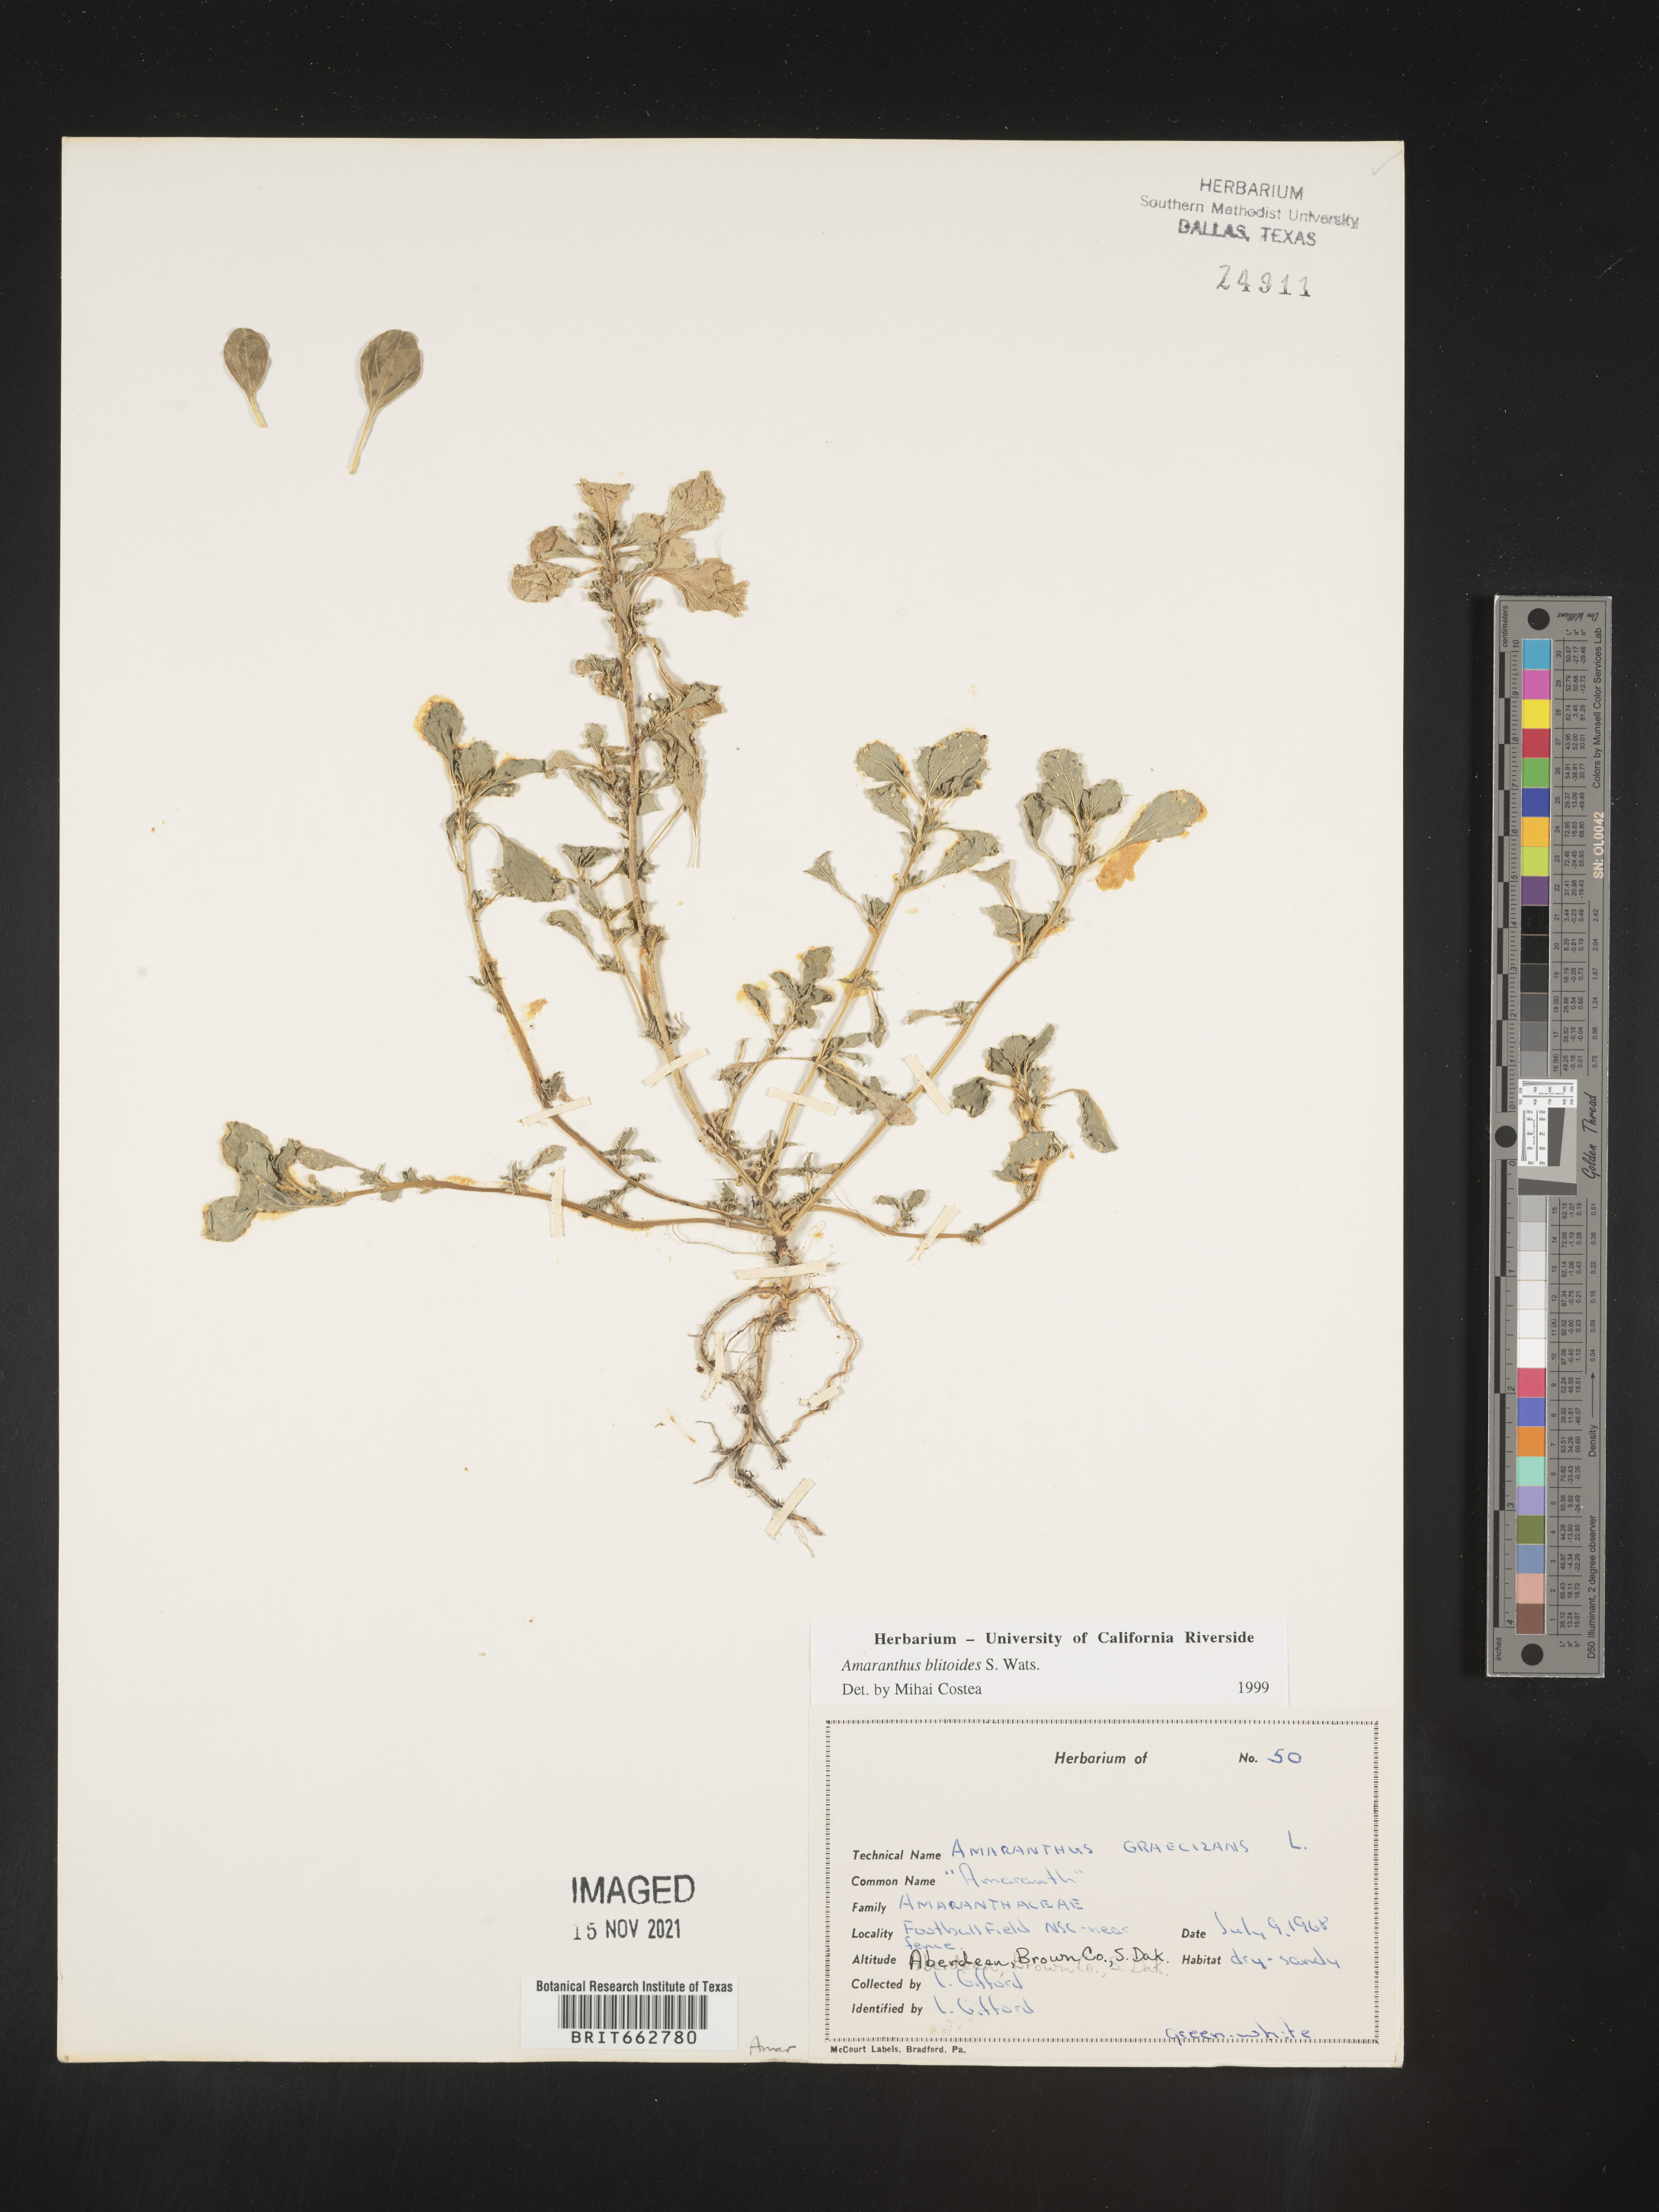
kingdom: Plantae
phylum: Tracheophyta
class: Magnoliopsida
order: Caryophyllales
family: Amaranthaceae
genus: Amaranthus
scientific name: Amaranthus blitoides
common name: Prostrate pigweed
